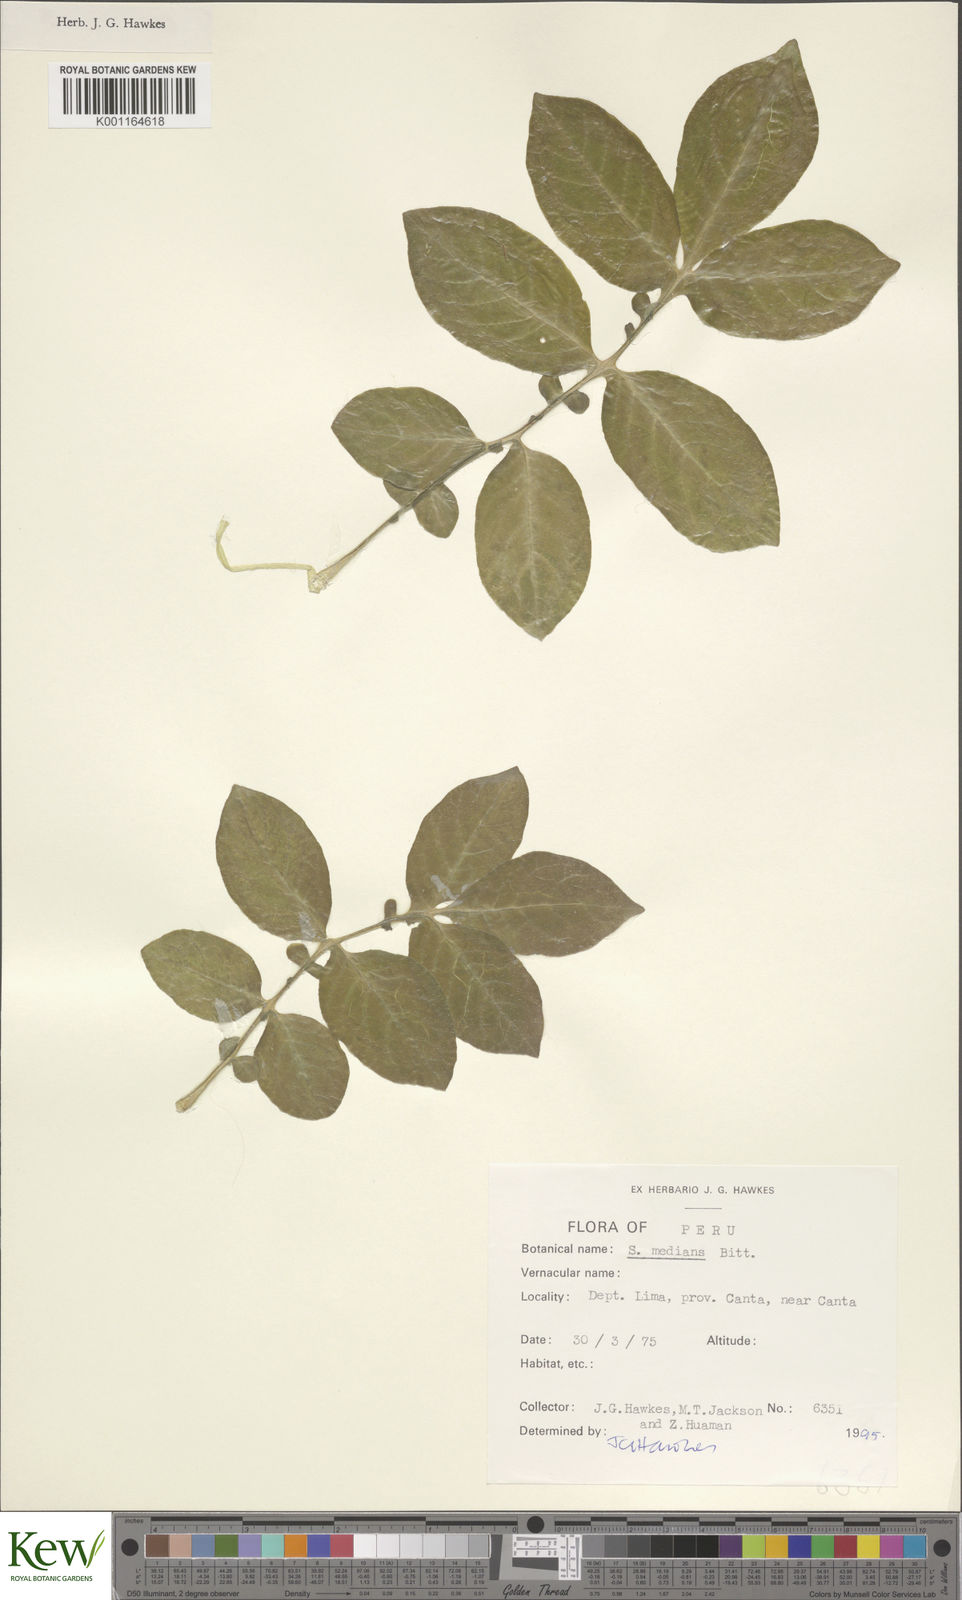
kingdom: Plantae
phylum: Tracheophyta
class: Magnoliopsida
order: Solanales
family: Solanaceae
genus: Solanum
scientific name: Solanum medians
